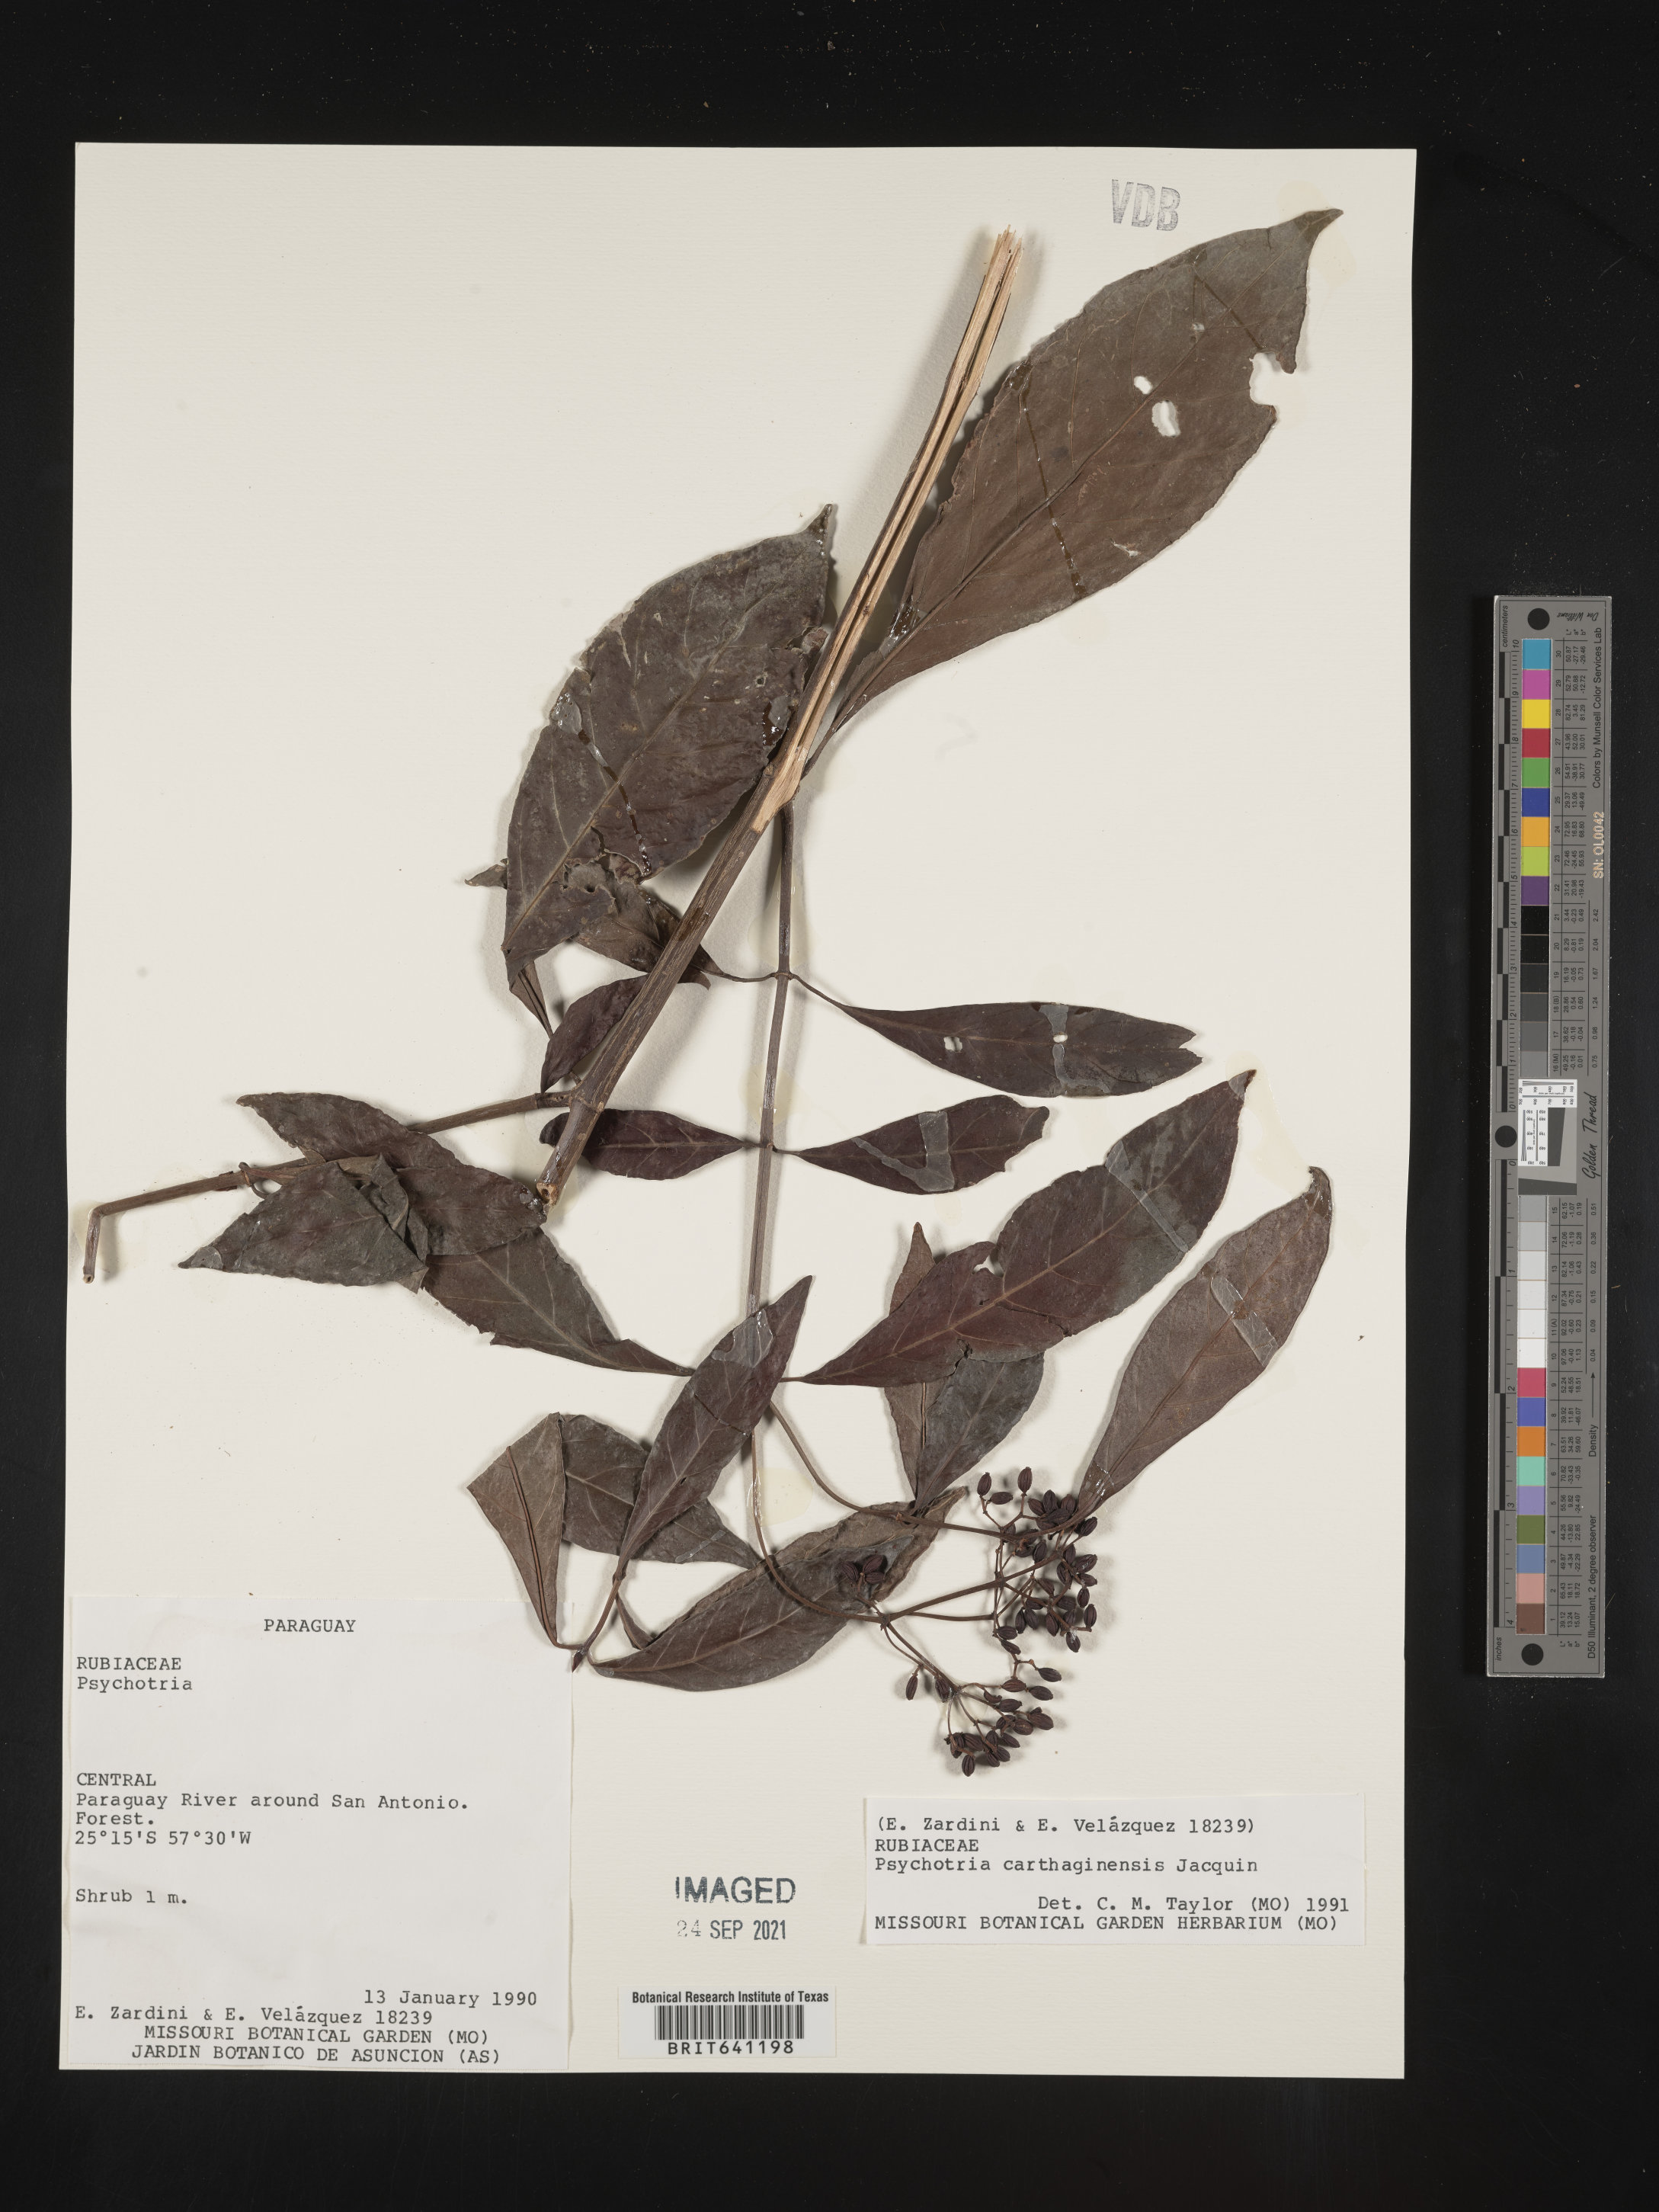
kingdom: Plantae
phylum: Tracheophyta
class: Magnoliopsida
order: Gentianales
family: Rubiaceae
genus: Psychotria
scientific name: Psychotria
